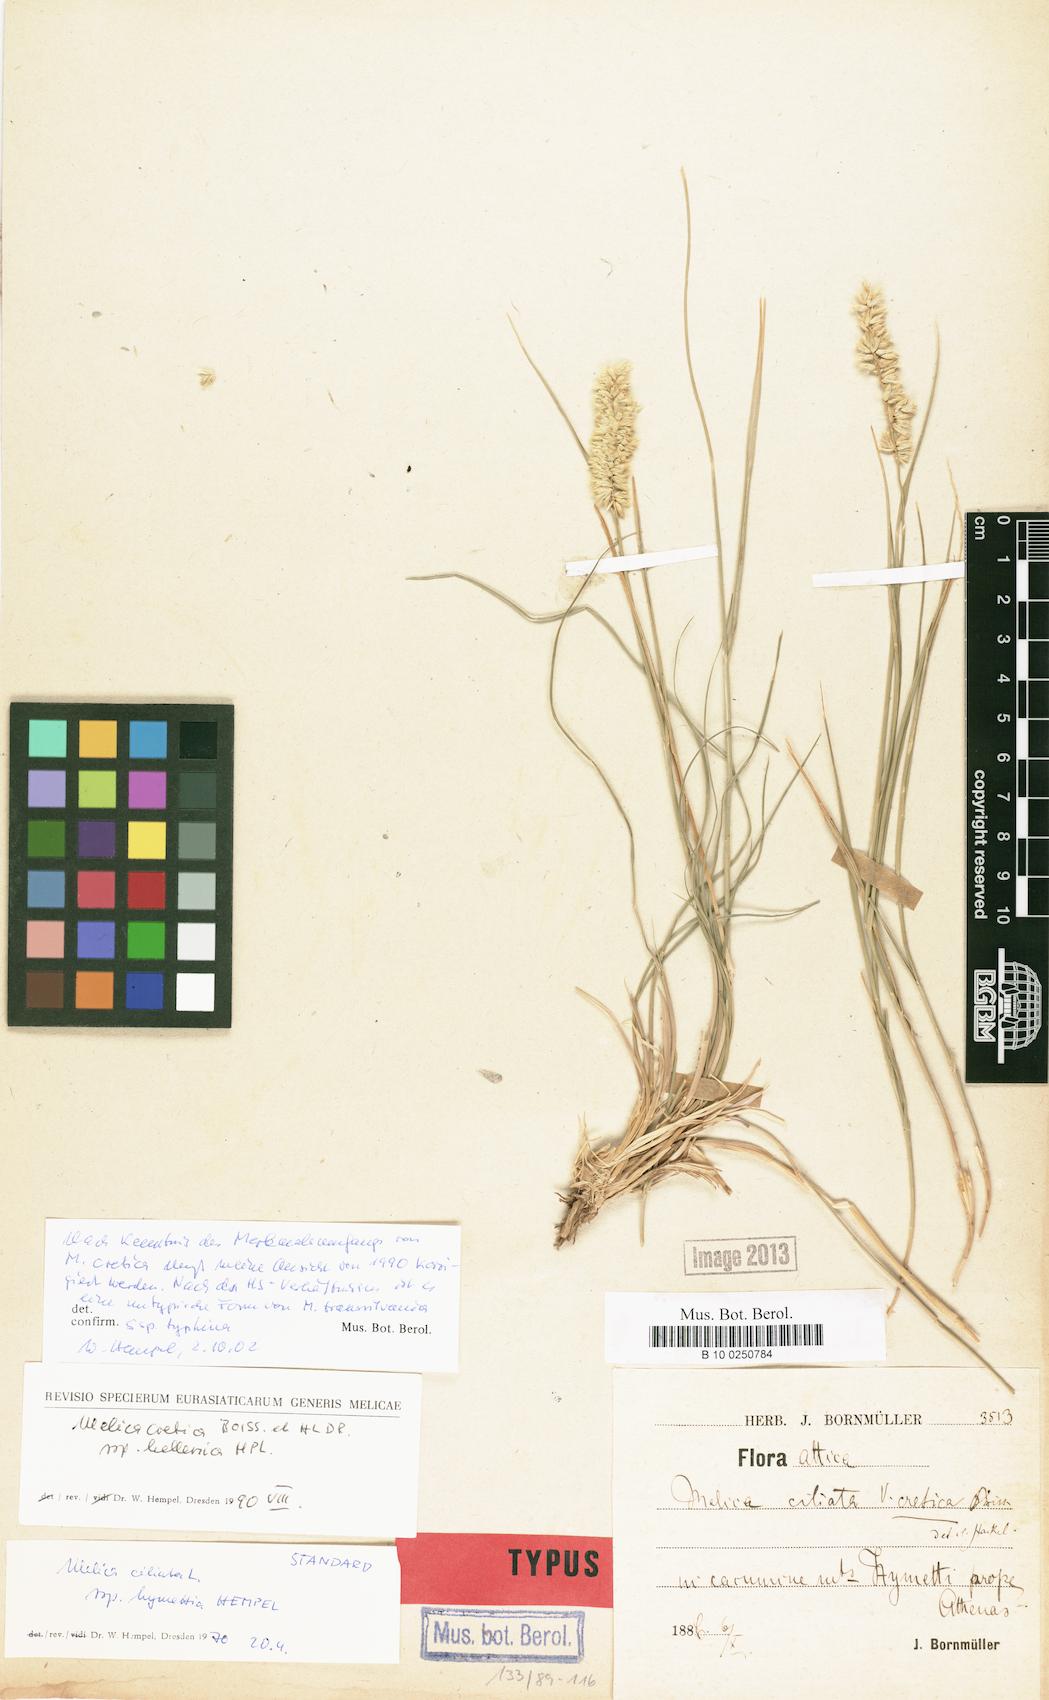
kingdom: Plantae
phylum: Tracheophyta
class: Liliopsida
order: Poales
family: Poaceae
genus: Melica
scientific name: Melica transsilvanica
